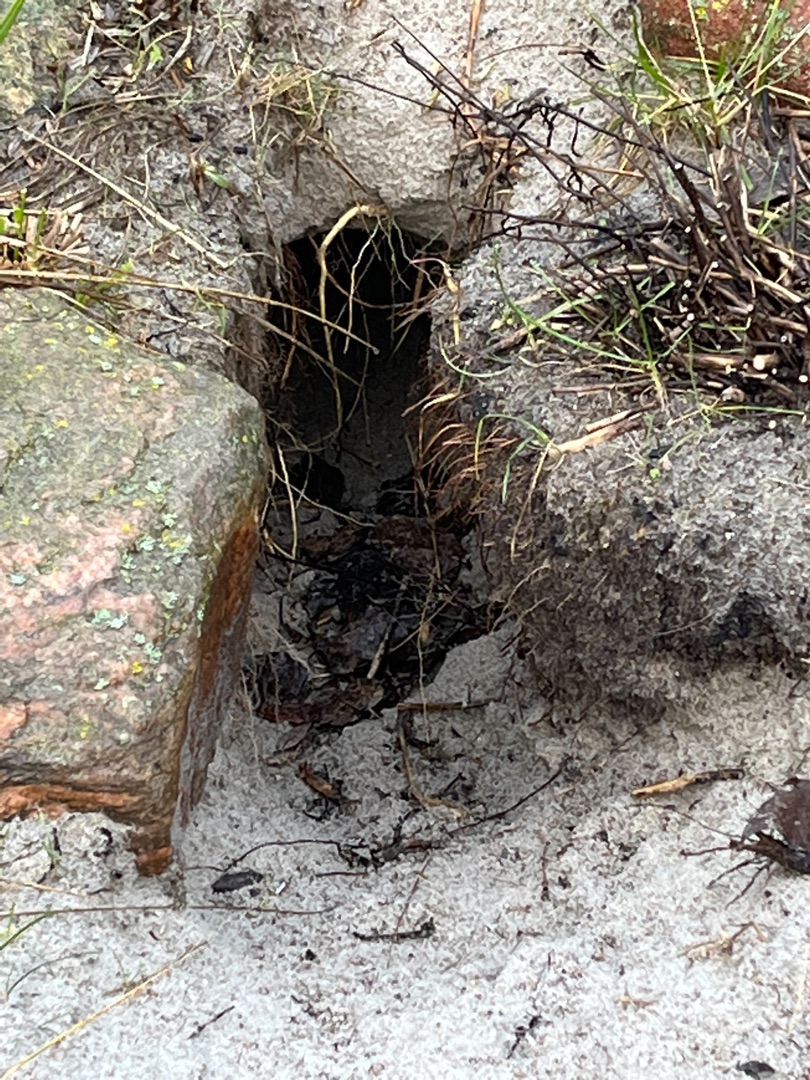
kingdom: Animalia
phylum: Chordata
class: Mammalia
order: Carnivora
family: Canidae
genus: Vulpes
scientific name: Vulpes vulpes
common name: Ræv
